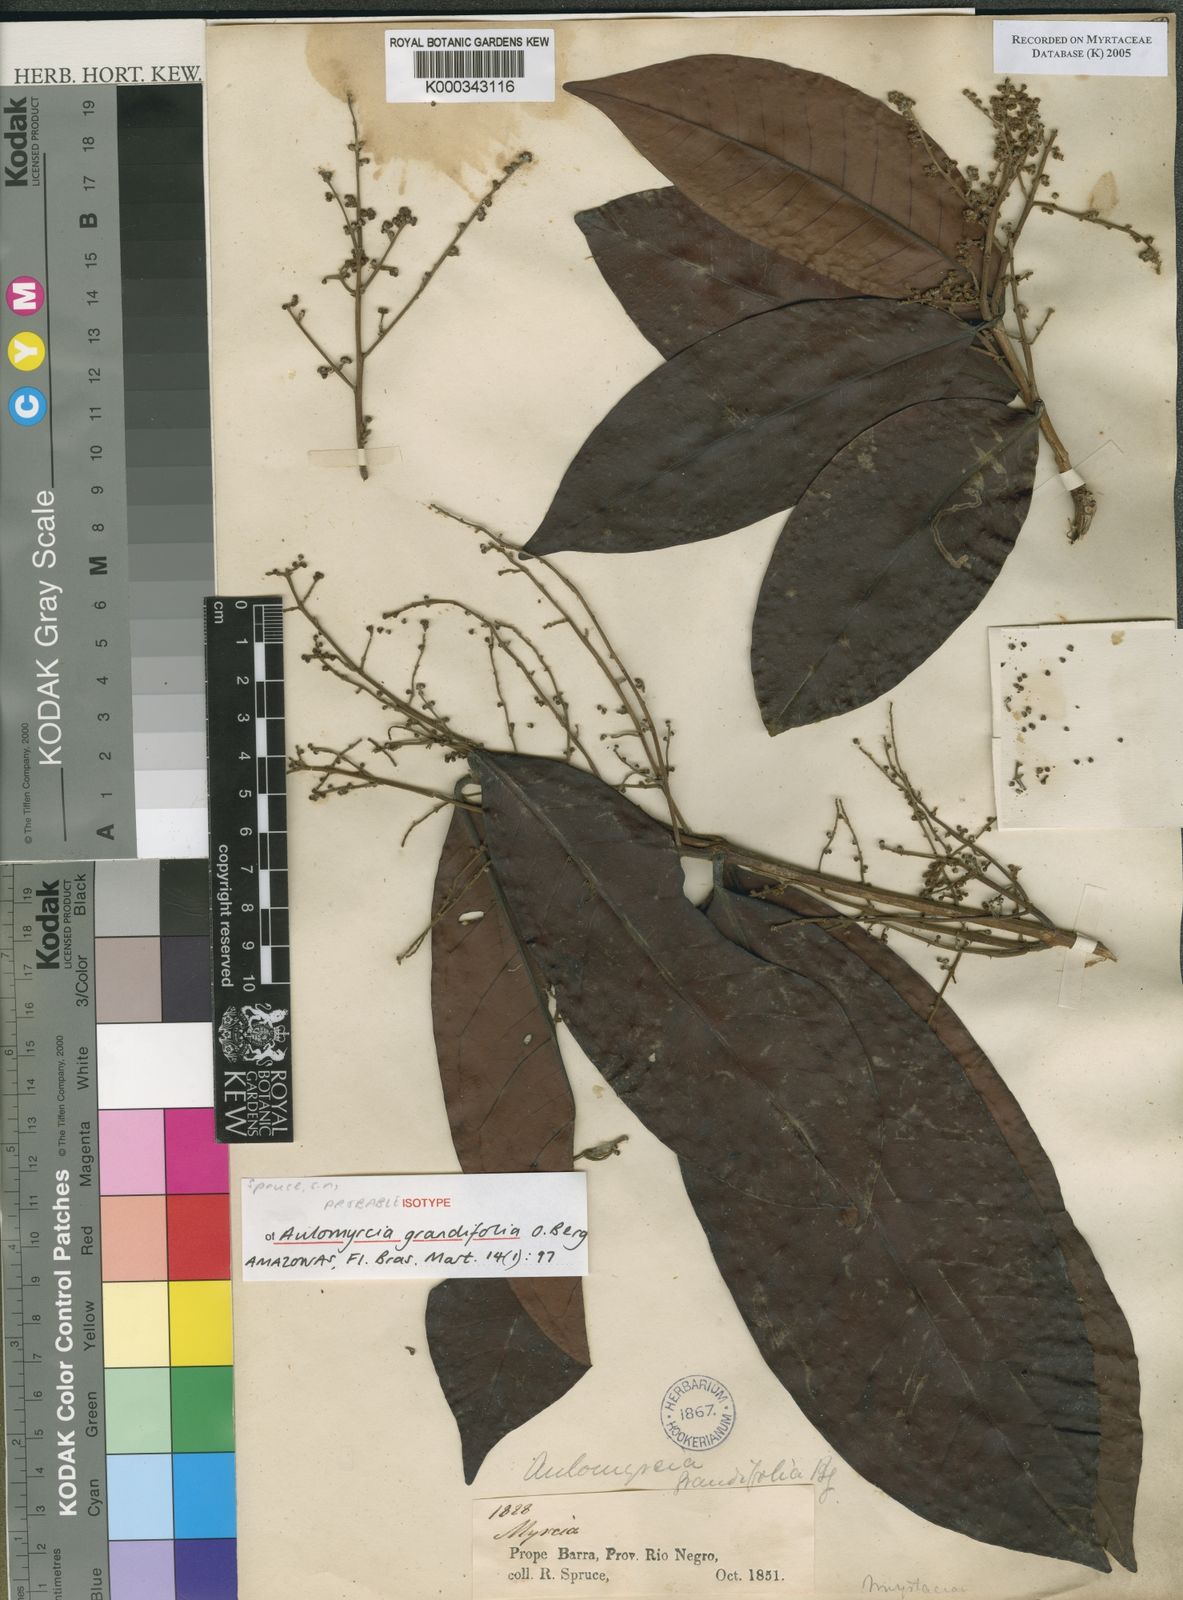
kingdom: Plantae
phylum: Tracheophyta
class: Magnoliopsida
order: Myrtales
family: Myrtaceae
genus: Myrcia
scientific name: Myrcia grandifolia
